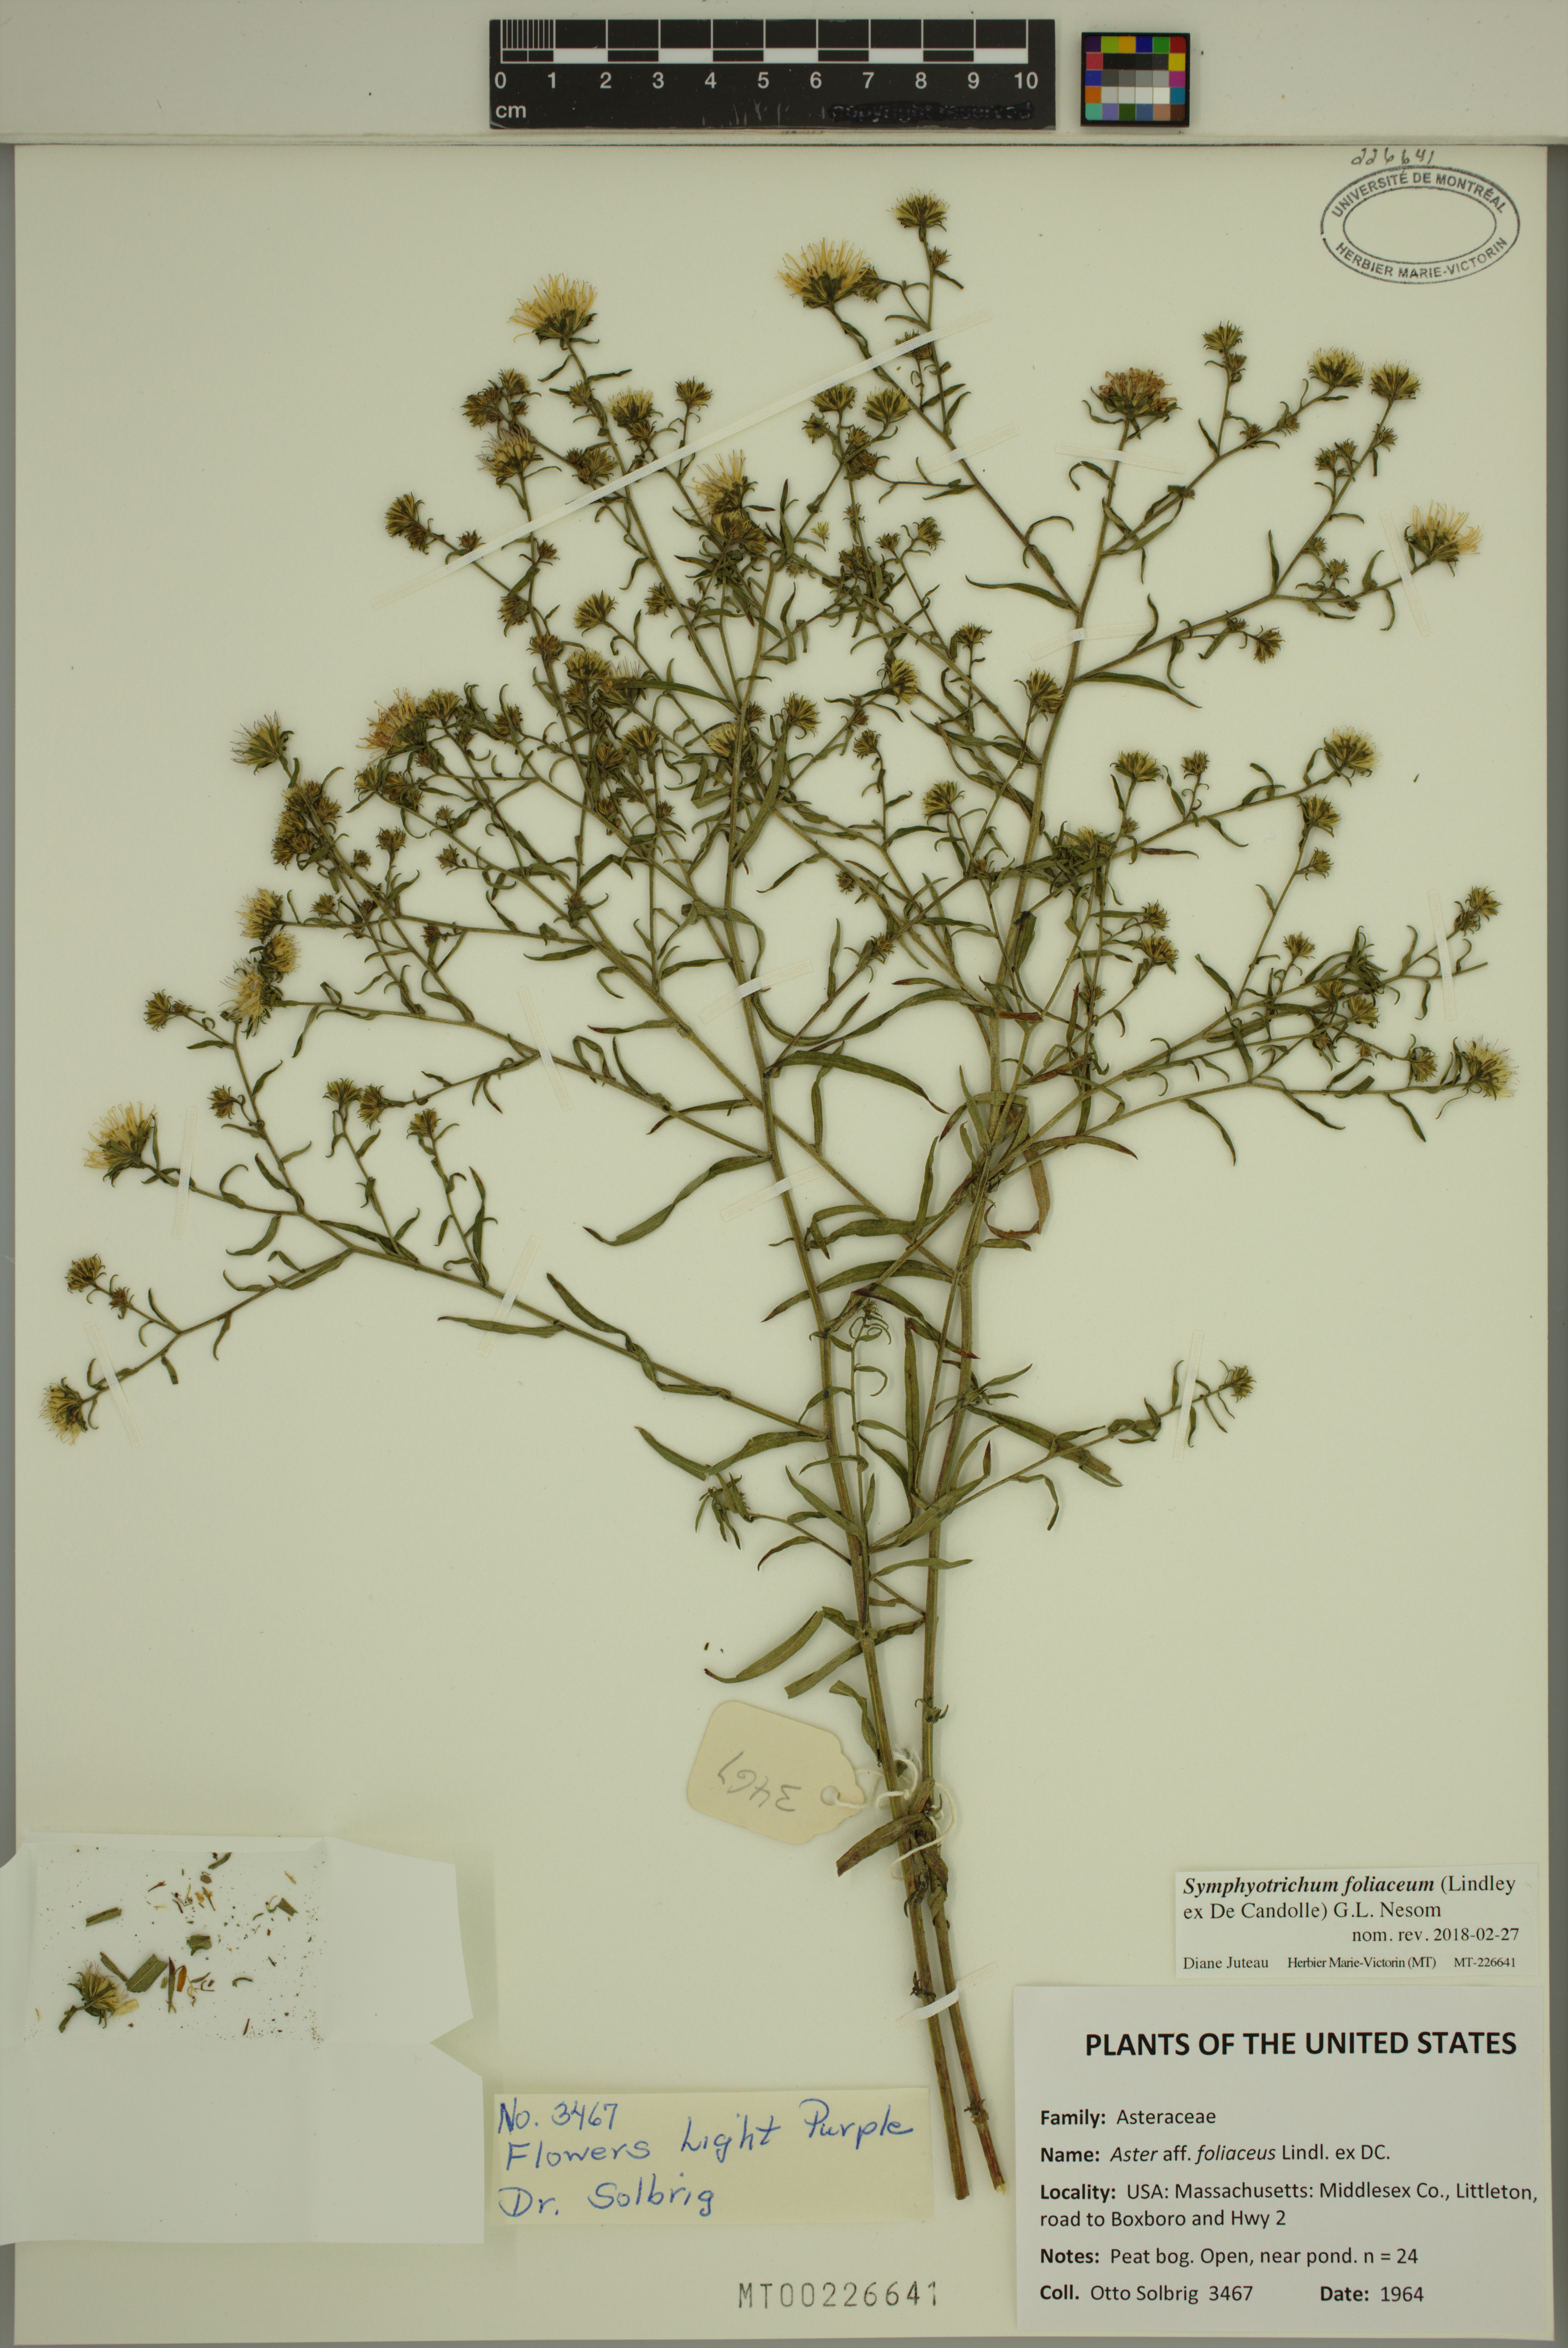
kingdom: Plantae
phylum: Tracheophyta
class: Magnoliopsida
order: Asterales
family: Asteraceae
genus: Symphyotrichum
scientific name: Symphyotrichum foliaceum
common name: Leafy aster
